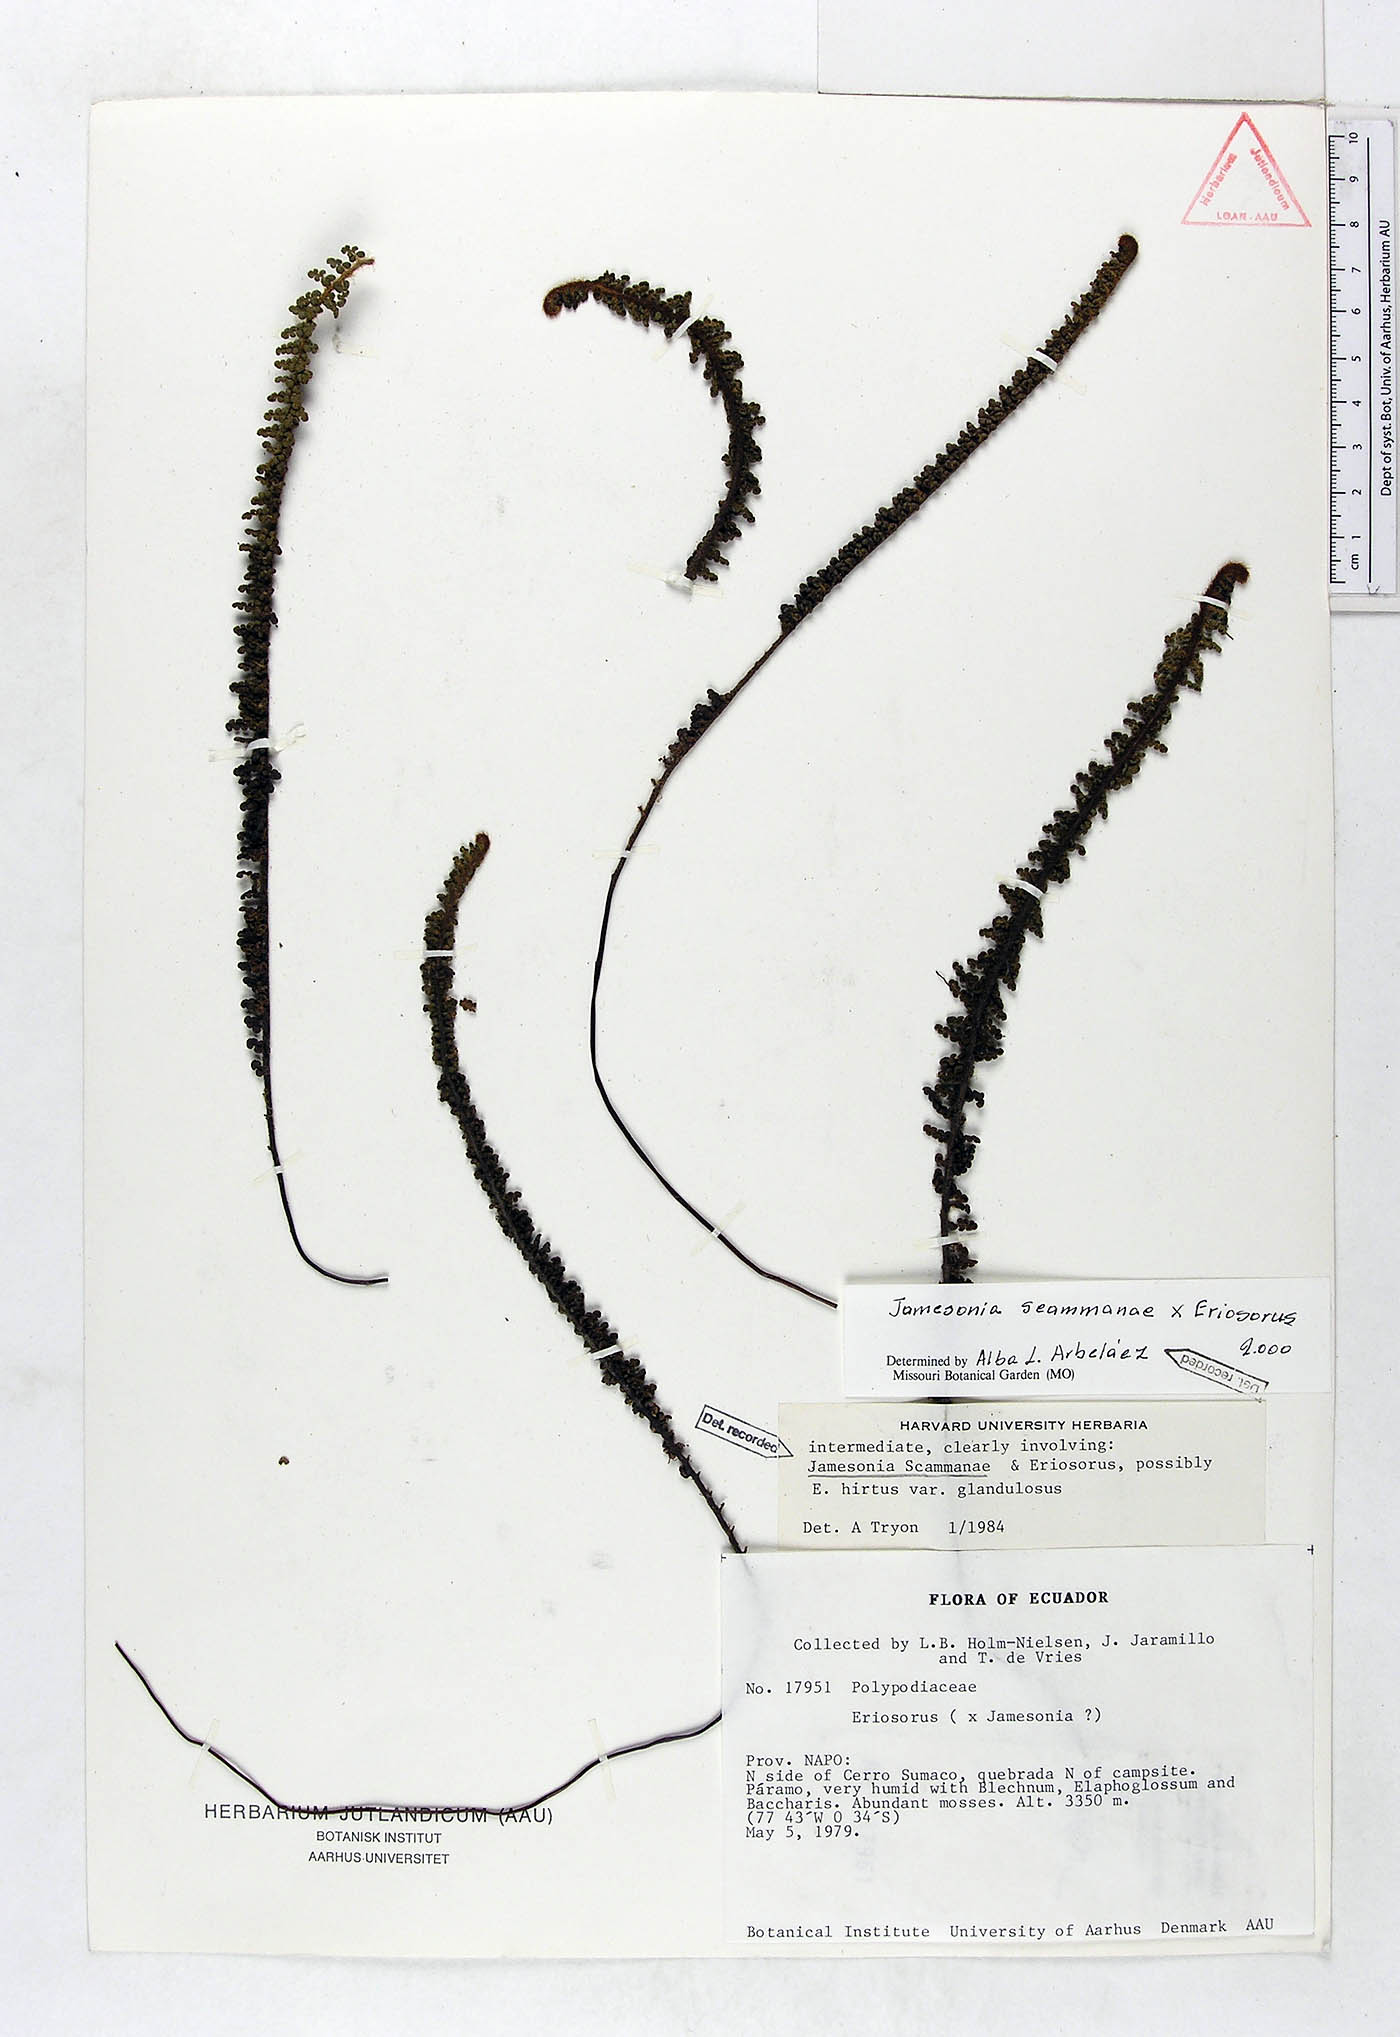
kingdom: Plantae
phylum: Tracheophyta
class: Polypodiopsida
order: Polypodiales
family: Pteridaceae
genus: Jamesonia
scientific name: Jamesonia scammanae
